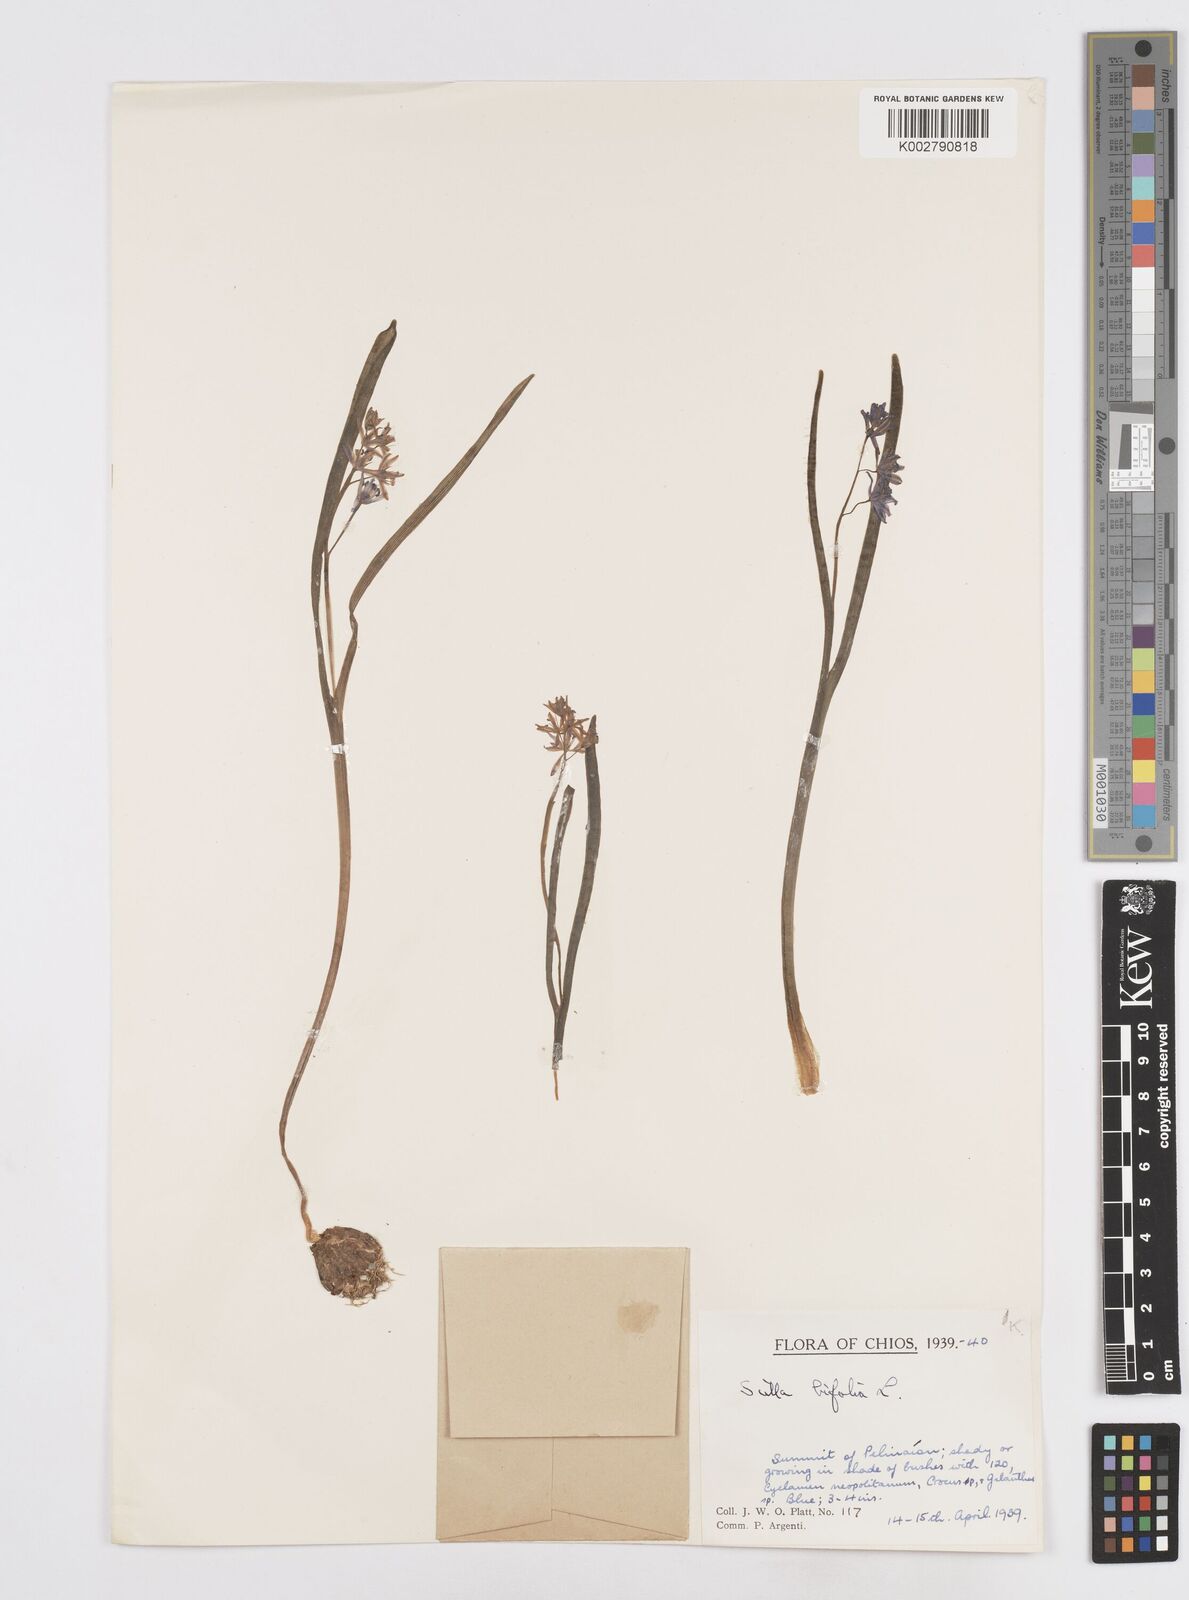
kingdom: Plantae
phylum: Tracheophyta
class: Liliopsida
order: Asparagales
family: Asparagaceae
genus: Scilla
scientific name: Scilla bifolia
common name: Alpine squill
